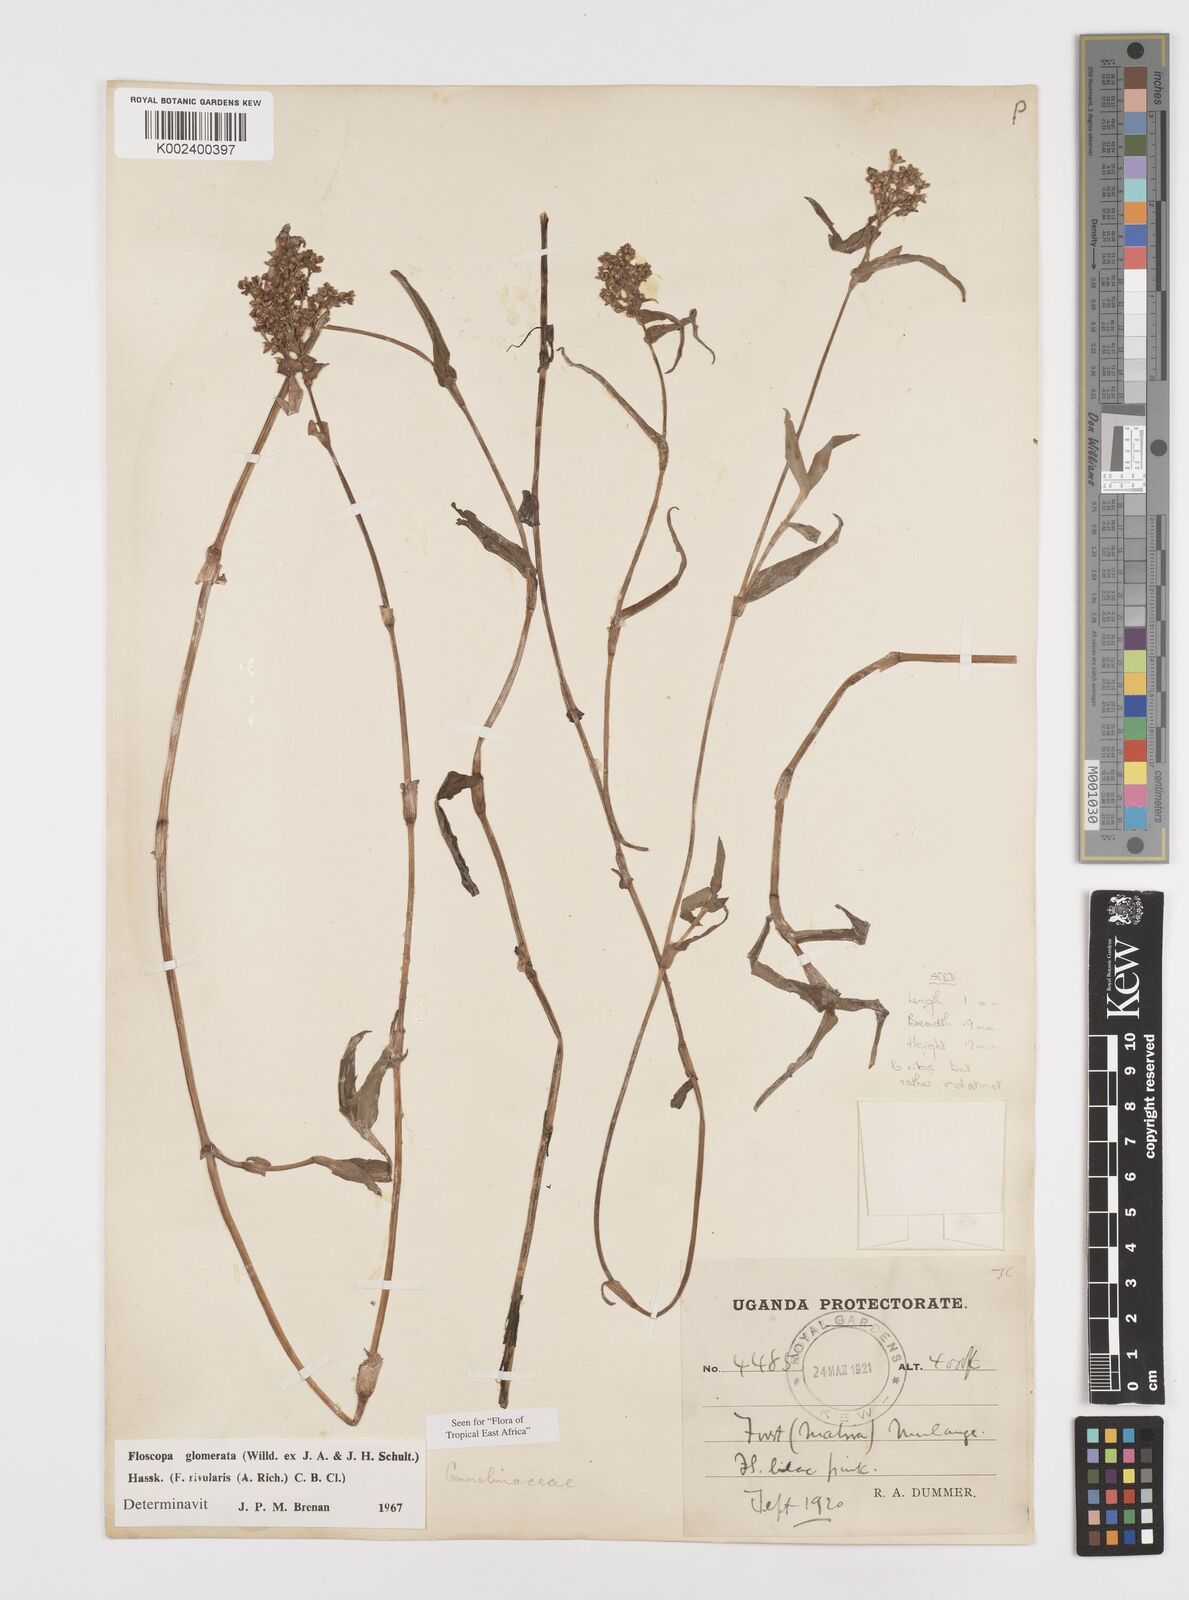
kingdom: Plantae
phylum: Tracheophyta
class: Liliopsida
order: Commelinales
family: Commelinaceae
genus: Floscopa
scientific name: Floscopa glomerata
